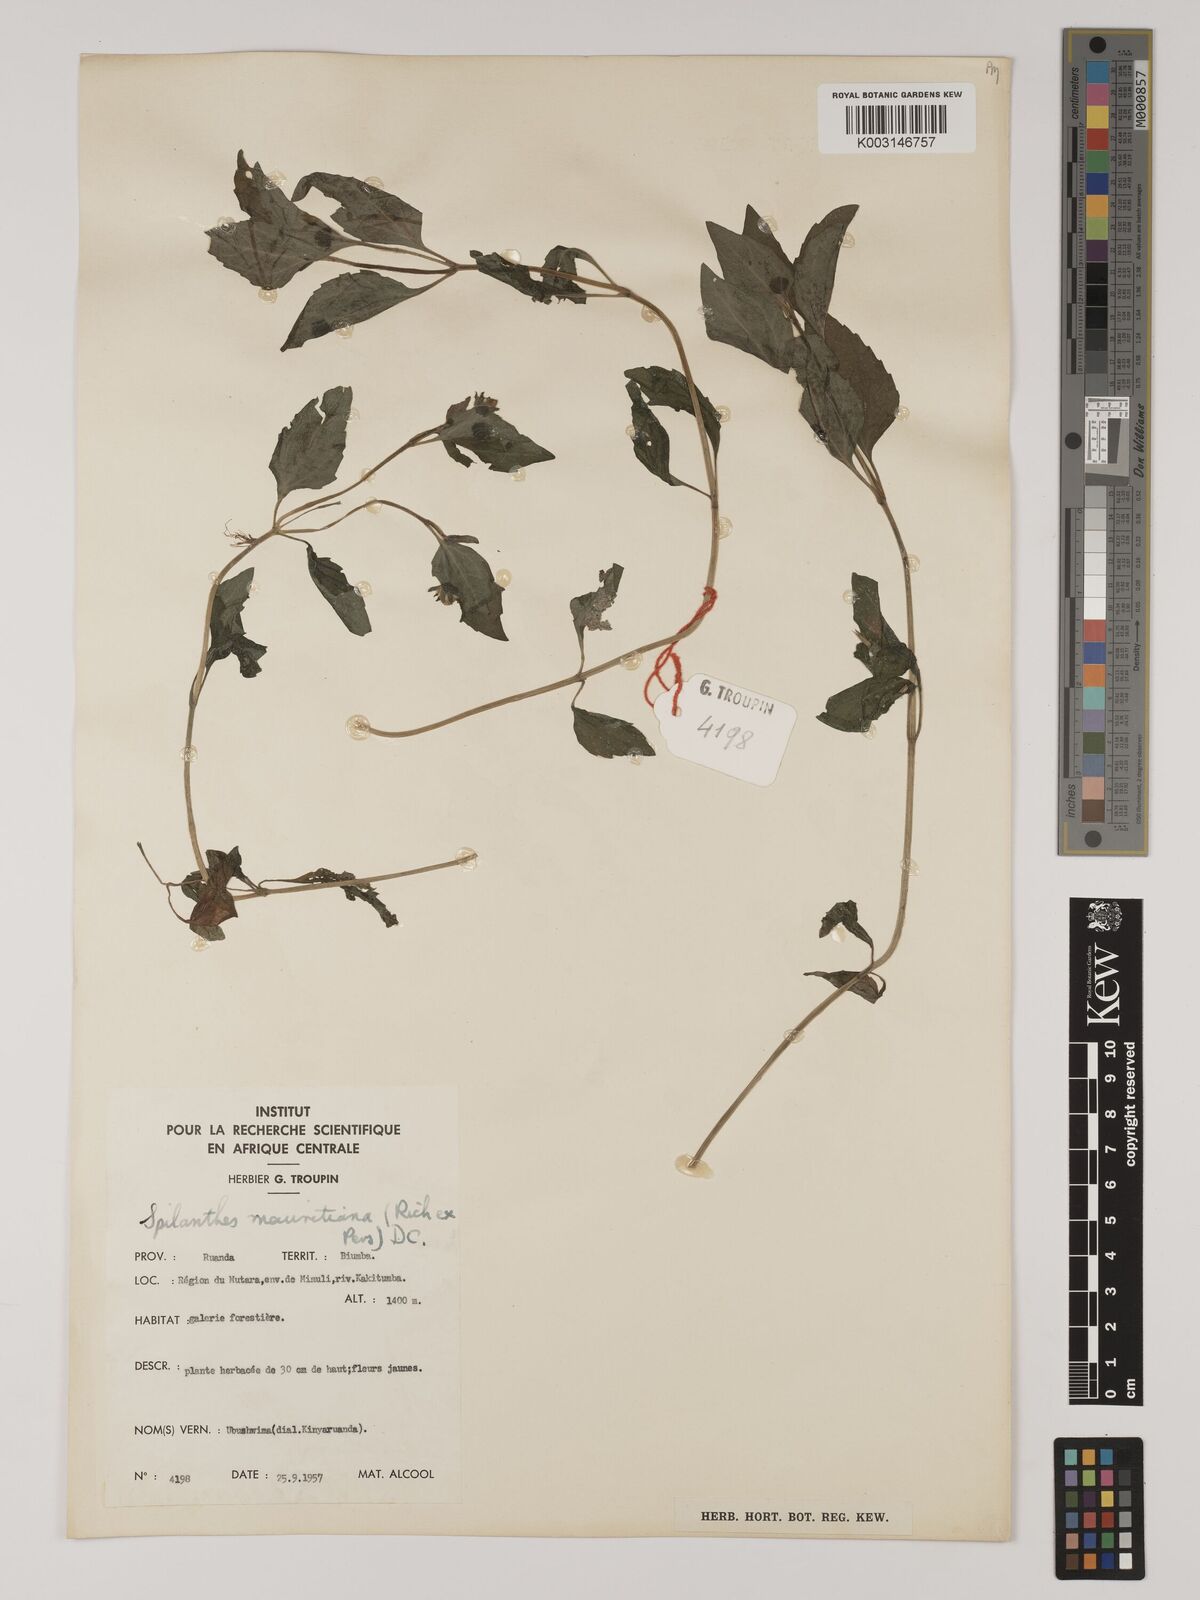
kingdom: Plantae
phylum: Tracheophyta
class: Magnoliopsida
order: Asterales
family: Asteraceae
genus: Acmella
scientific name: Acmella caulirhiza
